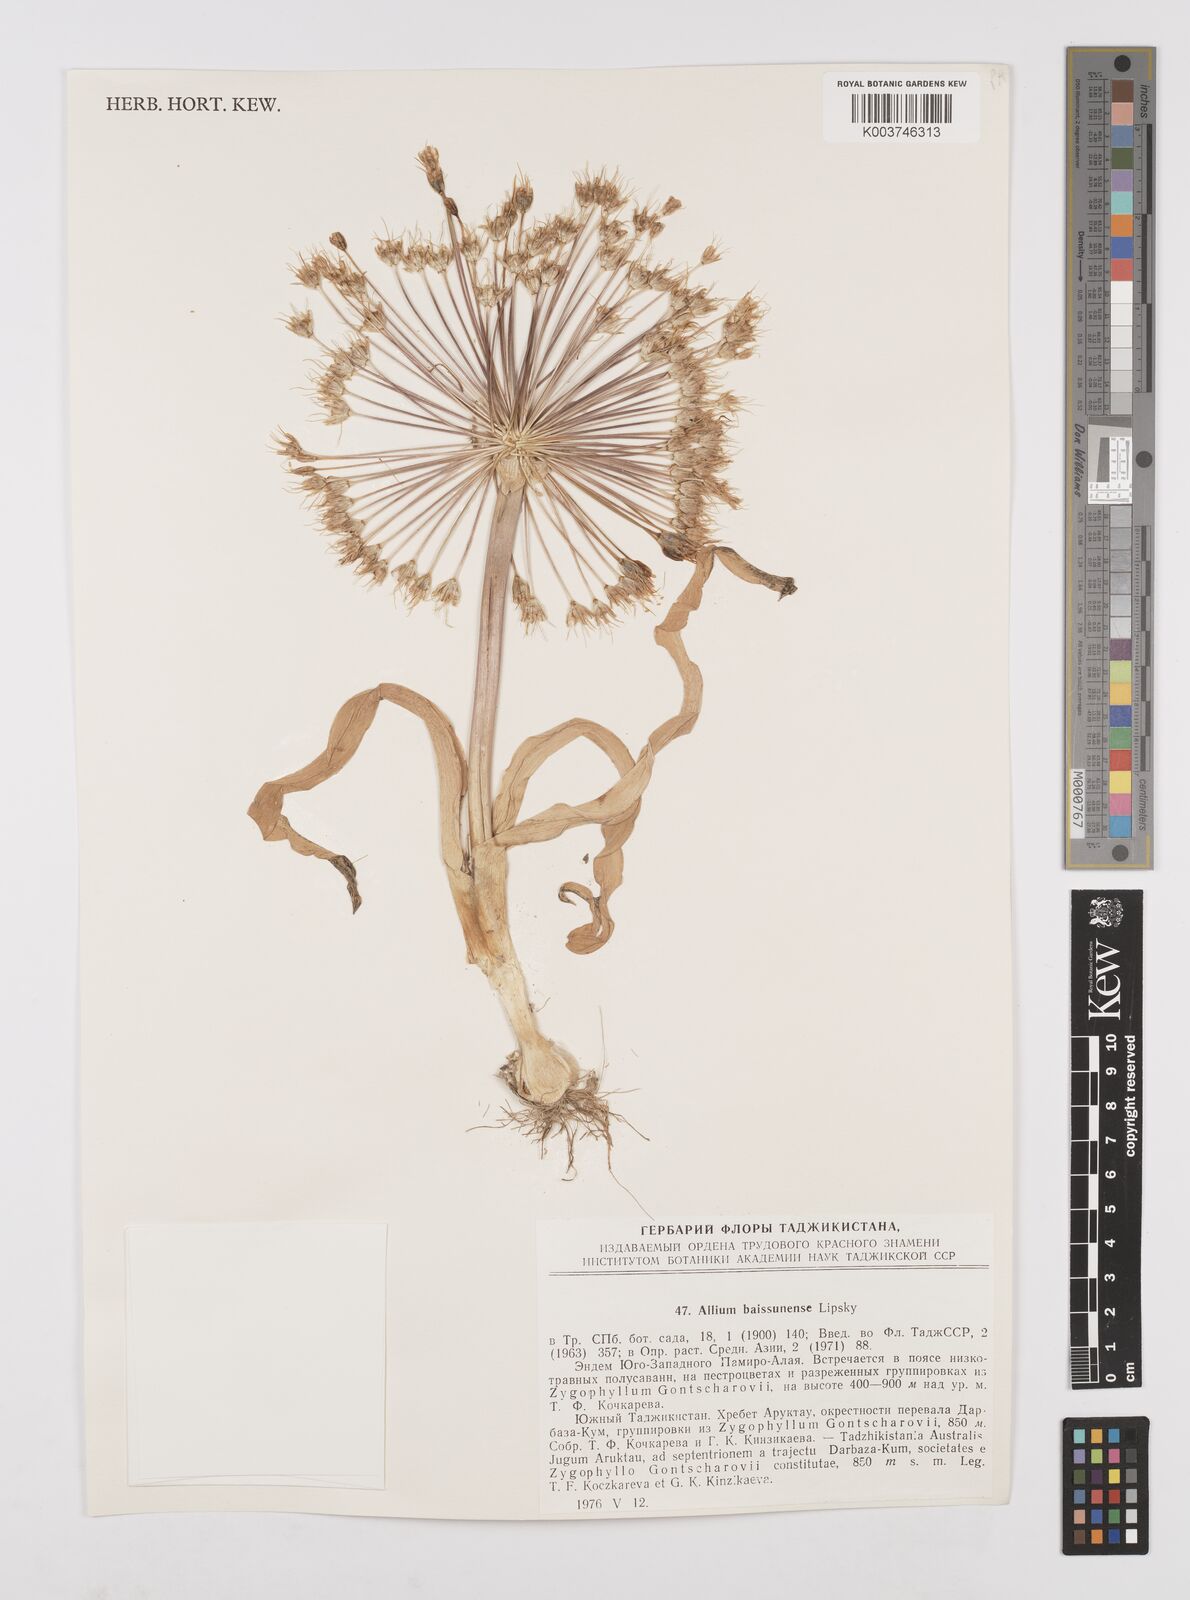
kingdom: Plantae
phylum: Tracheophyta
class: Liliopsida
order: Asparagales
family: Amaryllidaceae
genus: Allium
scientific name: Allium caspium
